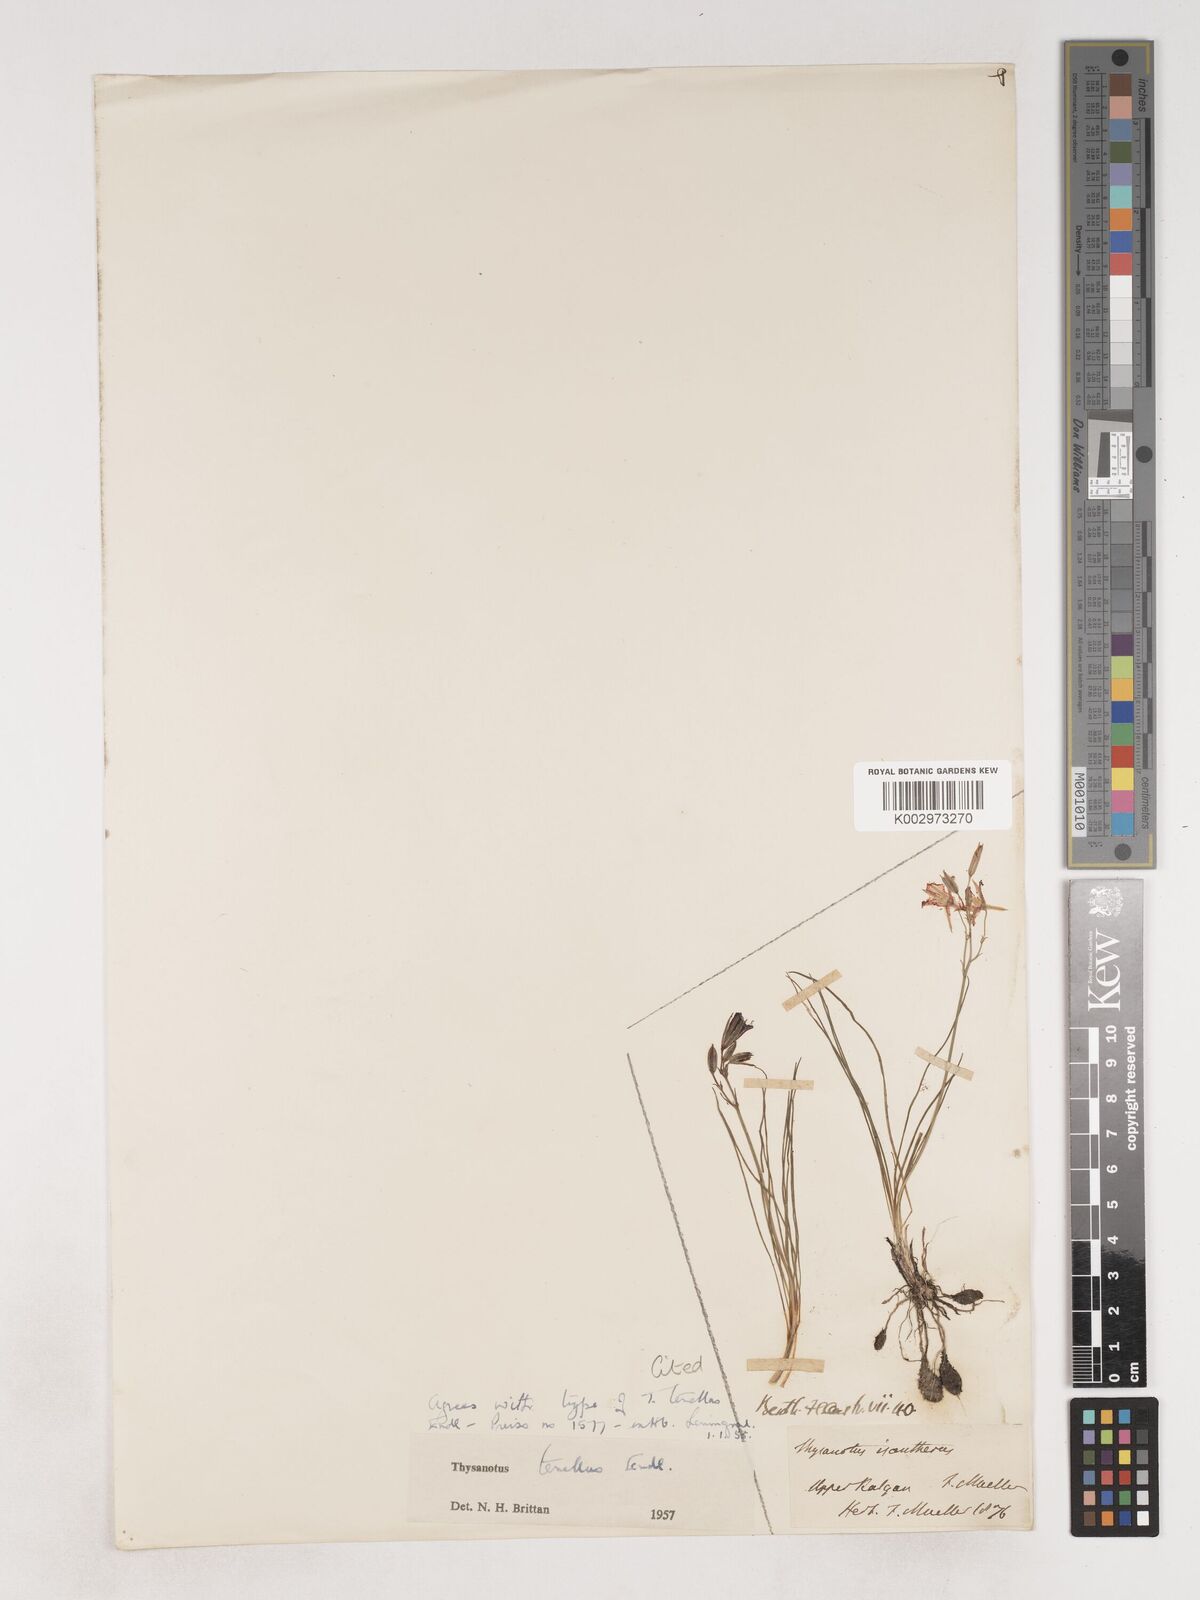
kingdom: Plantae
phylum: Tracheophyta
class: Liliopsida
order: Asparagales
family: Asparagaceae
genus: Thysanotus
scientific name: Thysanotus tenellus
